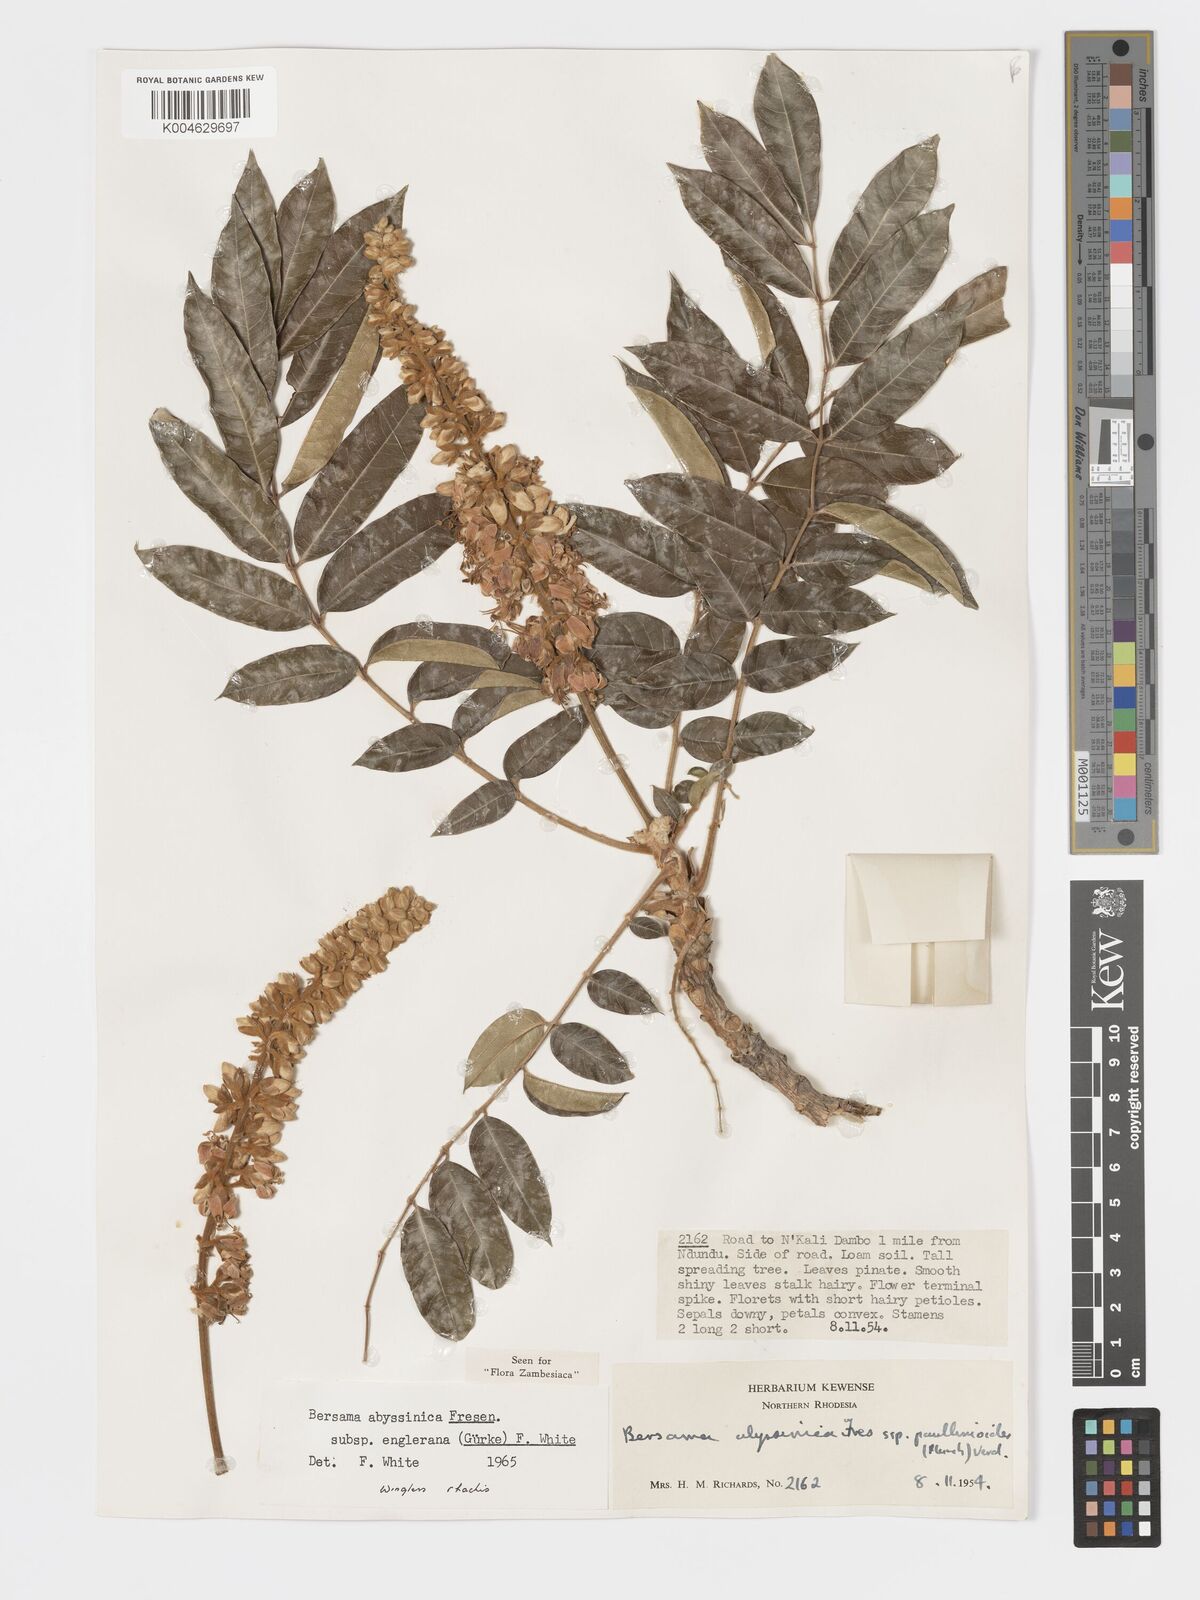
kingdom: Plantae
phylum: Tracheophyta
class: Magnoliopsida
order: Geraniales
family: Melianthaceae
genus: Bersama
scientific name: Bersama abyssinica
